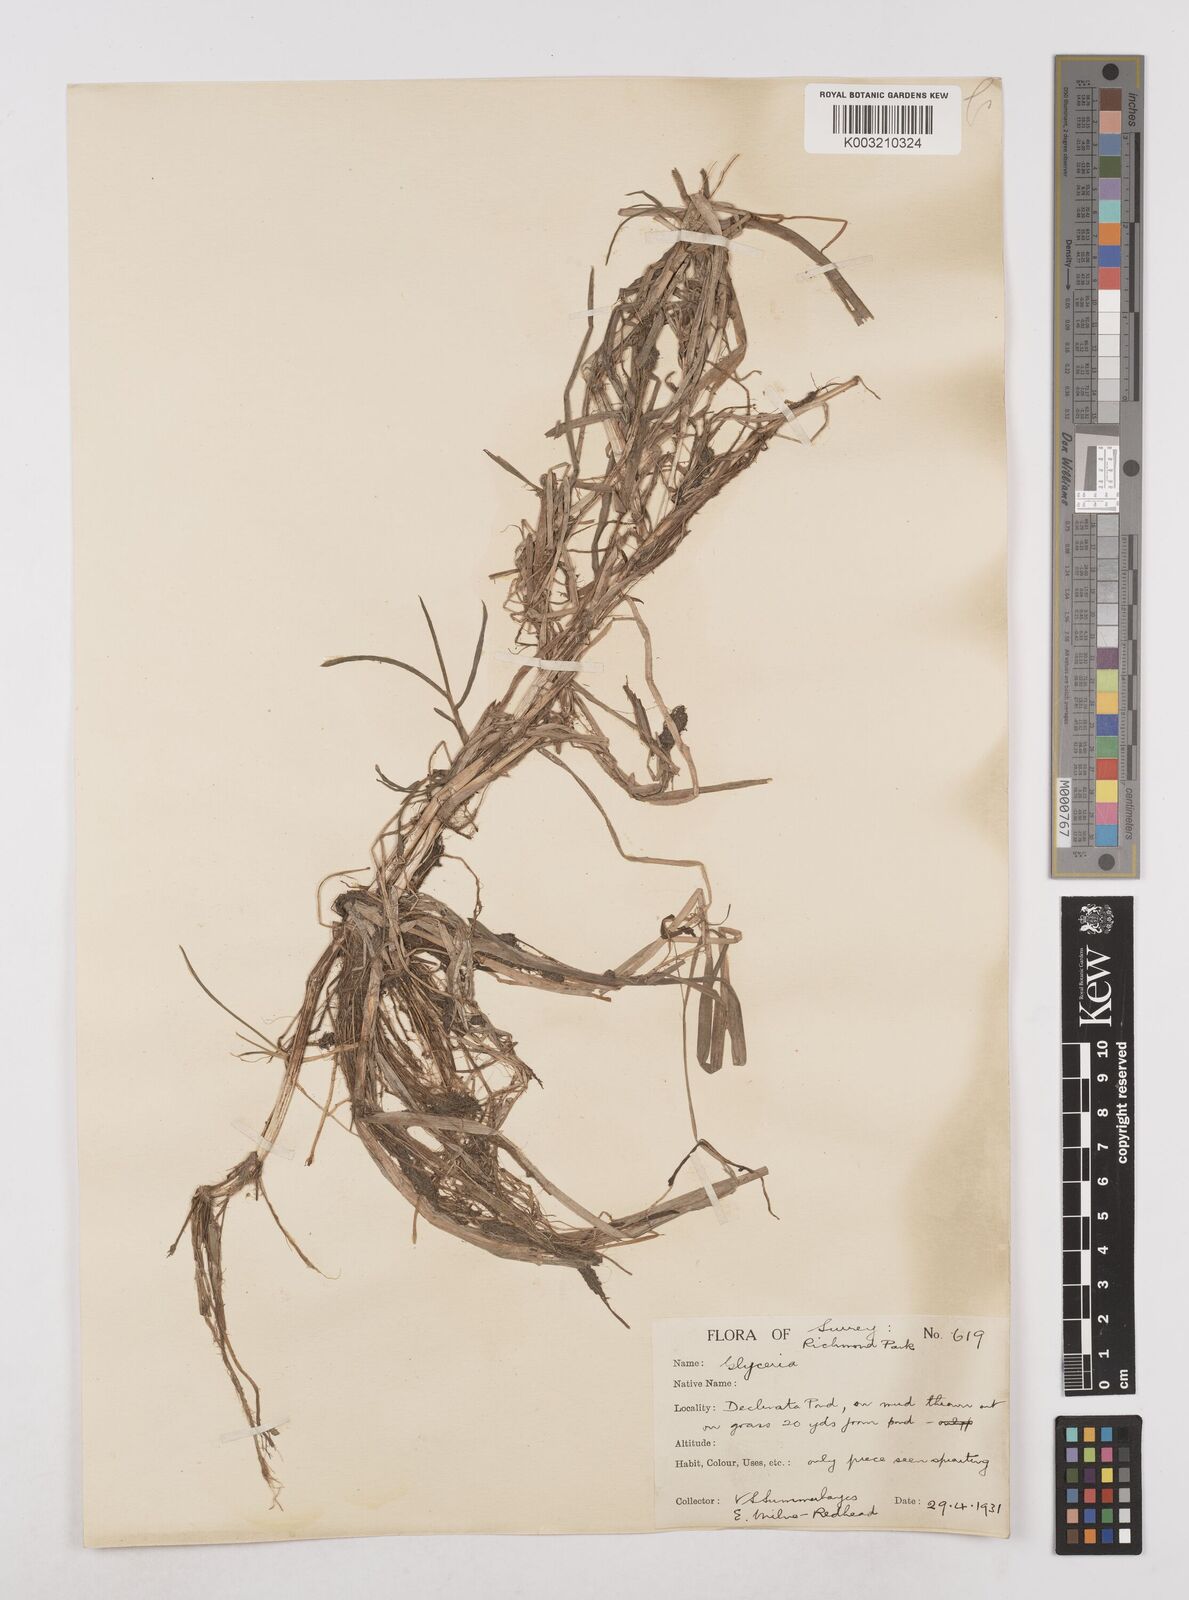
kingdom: Plantae
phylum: Tracheophyta
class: Liliopsida
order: Poales
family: Poaceae
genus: Glyceria
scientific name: Glyceria declinata
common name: Small sweet-grass
